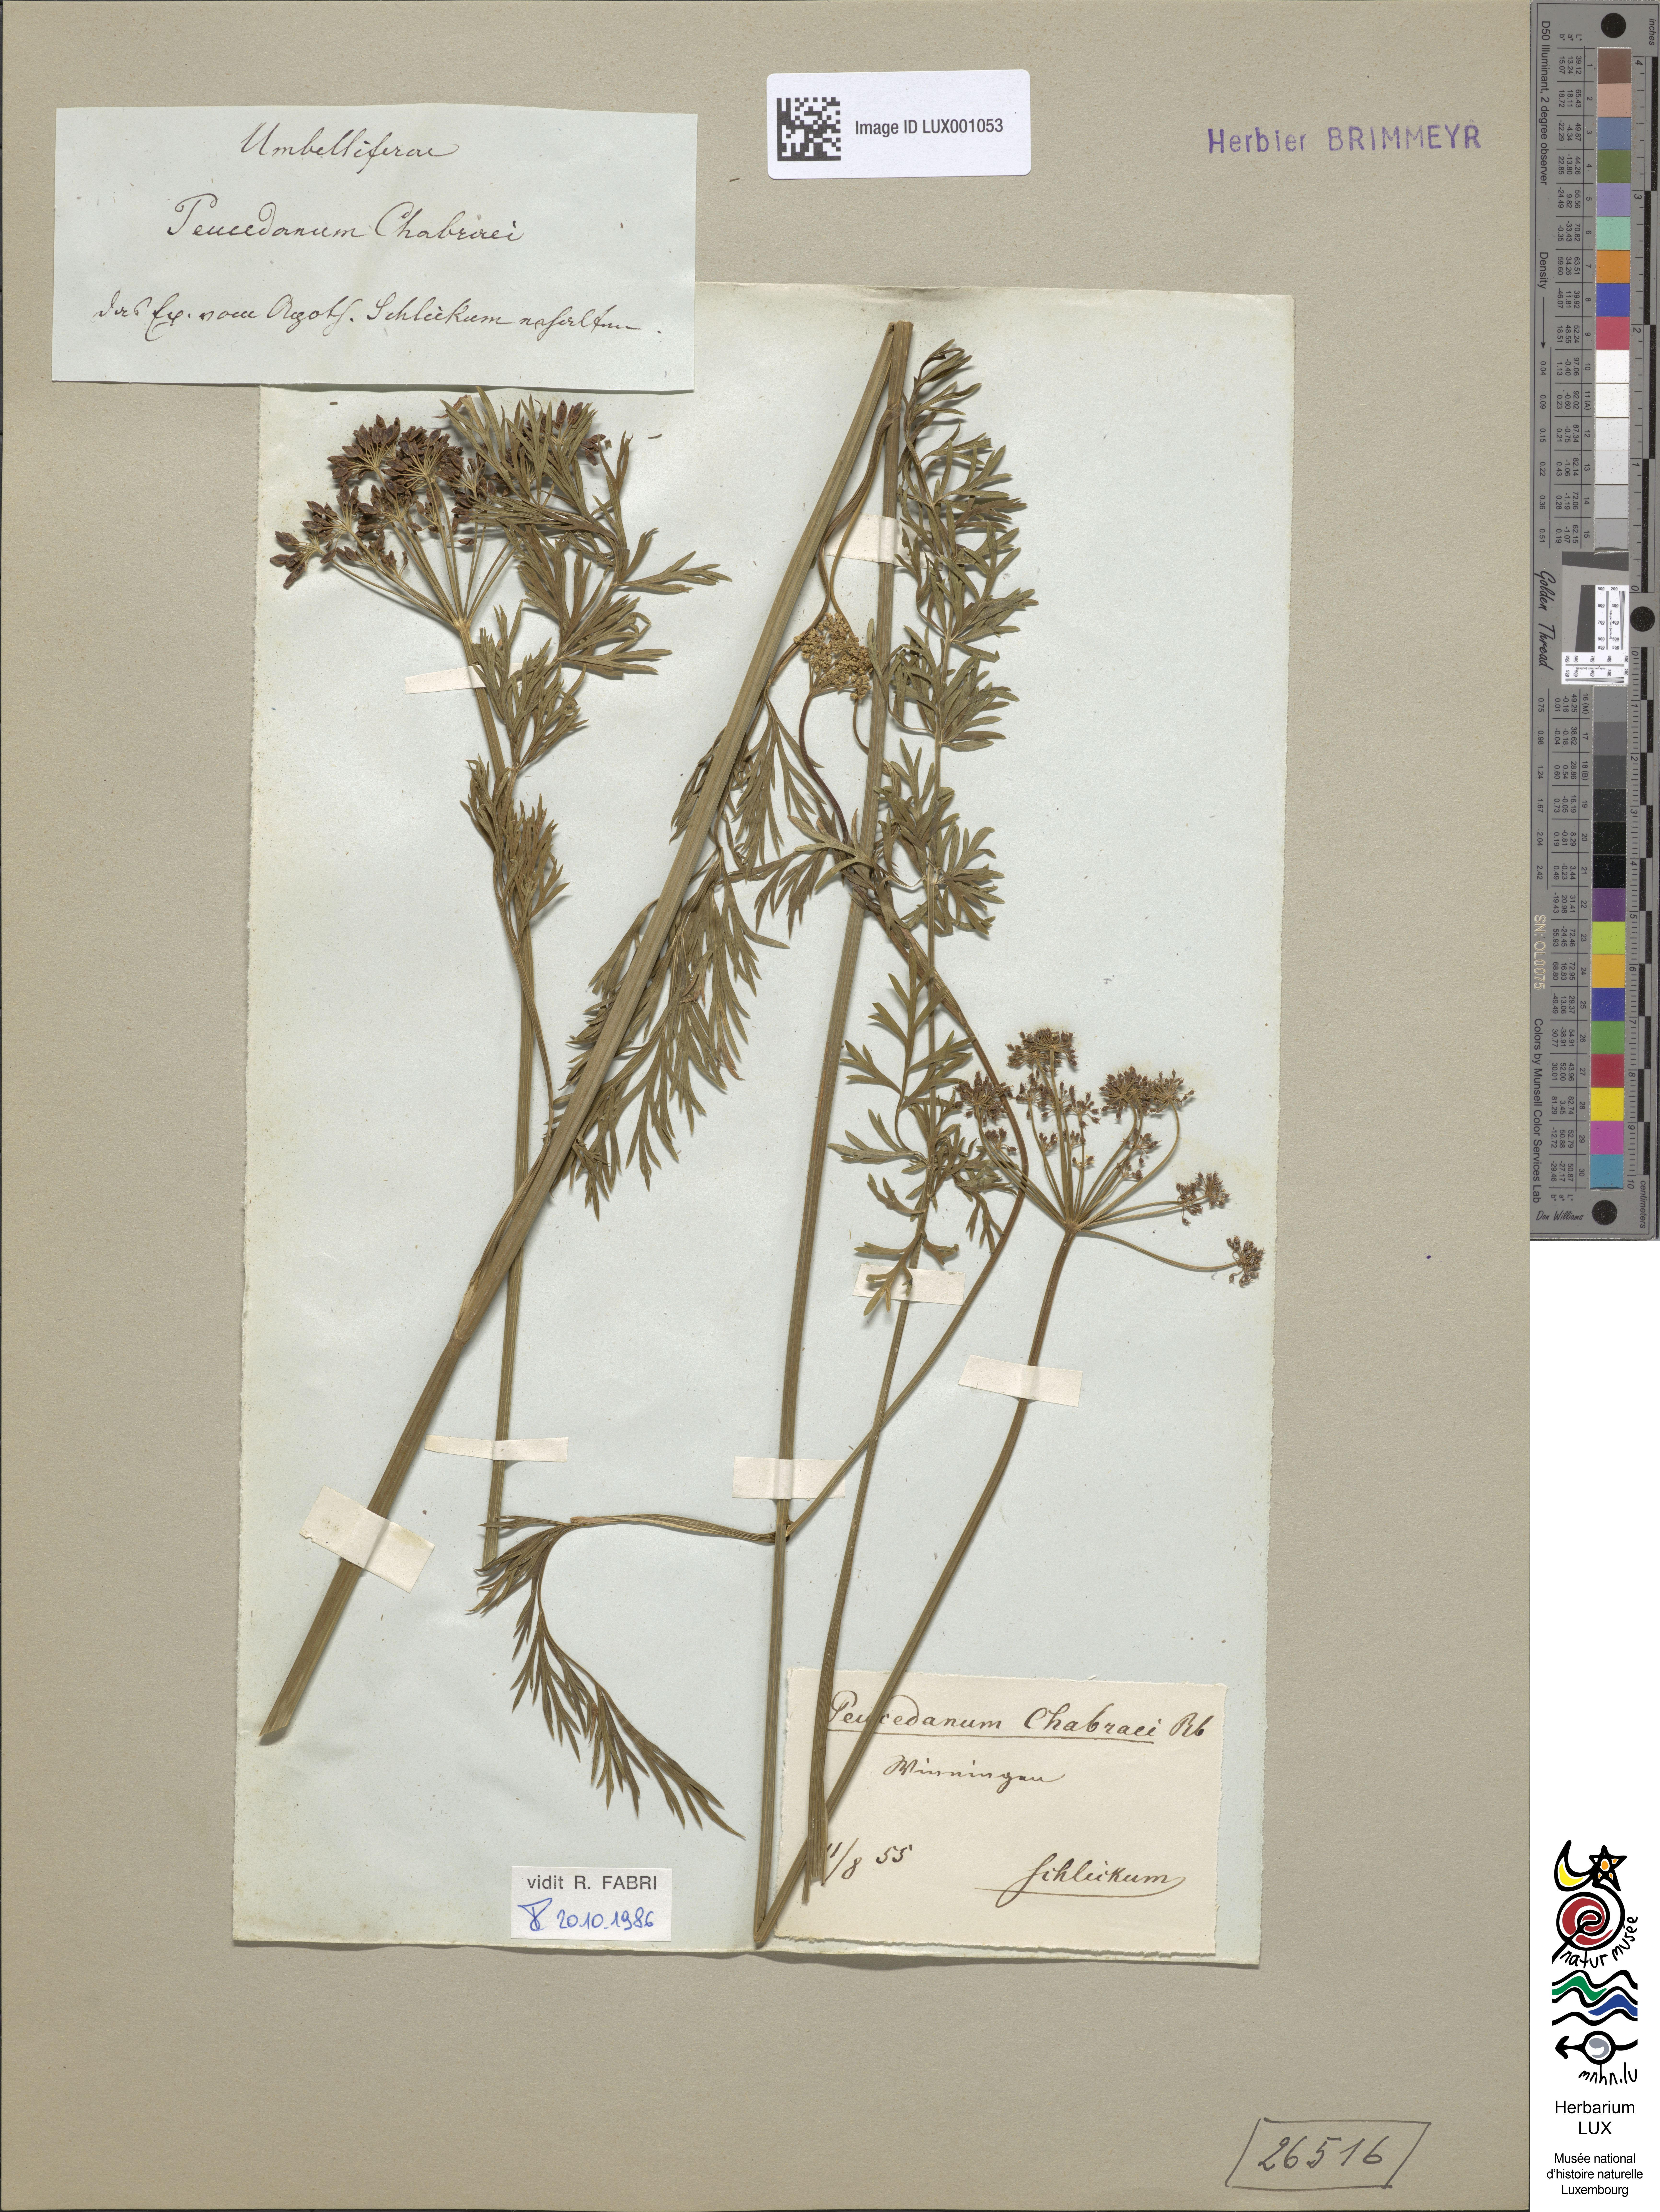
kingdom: Plantae
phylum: Tracheophyta
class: Magnoliopsida
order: Apiales
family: Apiaceae
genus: Dichoropetalum
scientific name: Dichoropetalum carvifolia
